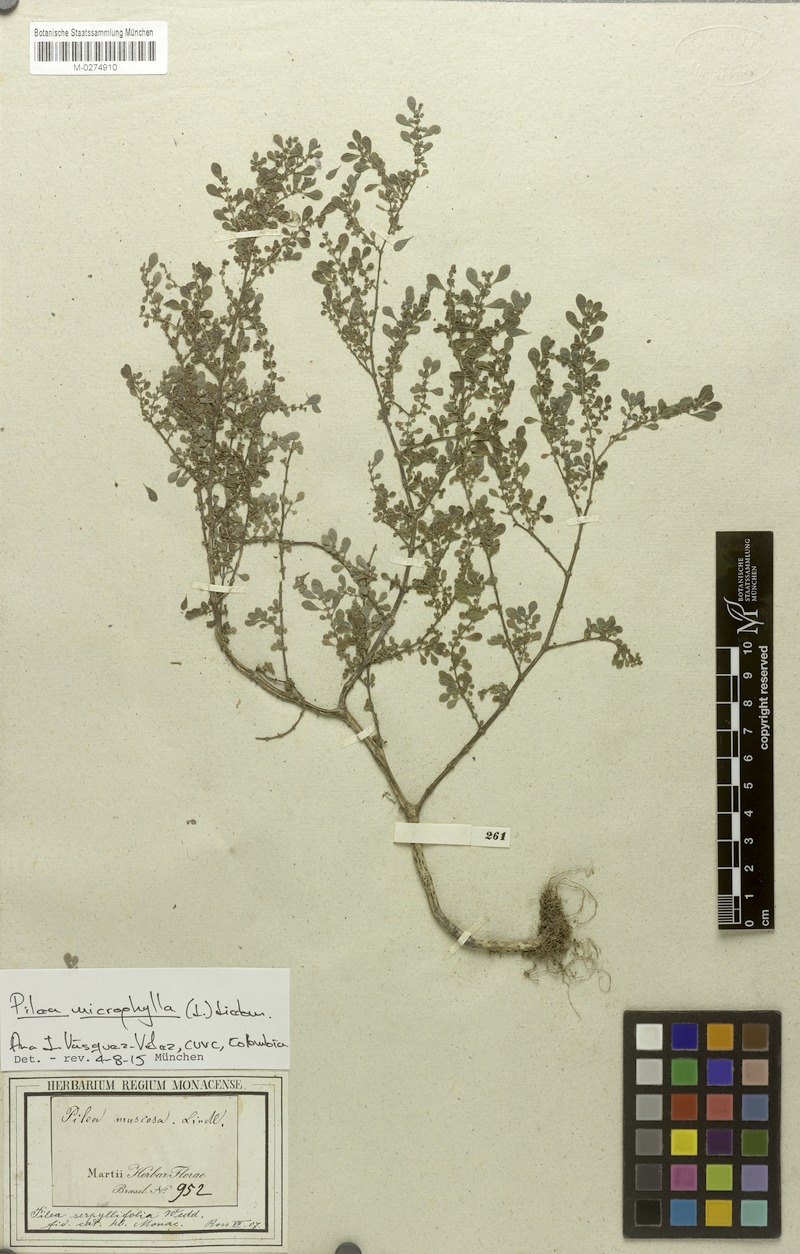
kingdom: Plantae
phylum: Tracheophyta
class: Magnoliopsida
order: Rosales
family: Urticaceae
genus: Pilea
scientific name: Pilea microphylla
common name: Artillery-plant
